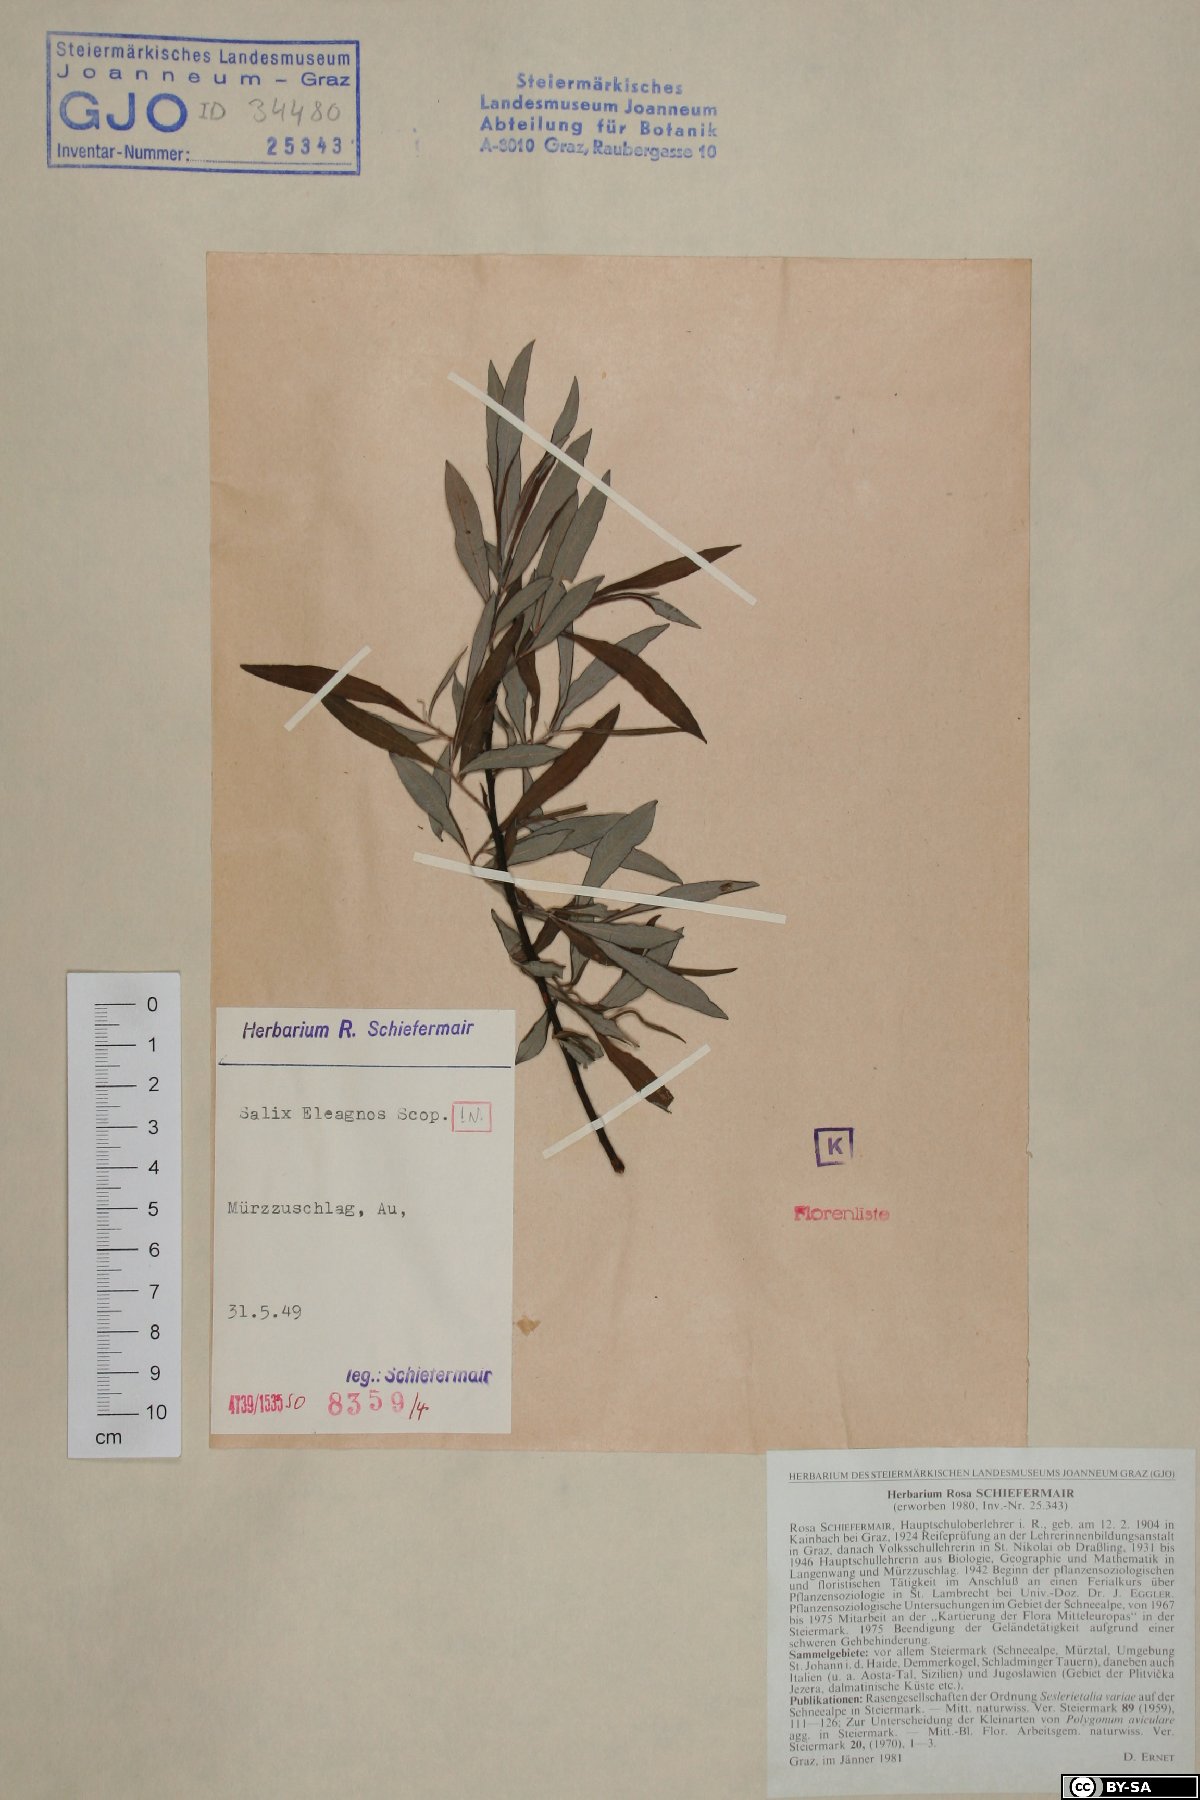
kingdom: Plantae
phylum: Tracheophyta
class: Magnoliopsida
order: Malpighiales
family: Salicaceae
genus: Salix
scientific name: Salix eleagnos
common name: Elaeagnus willow
